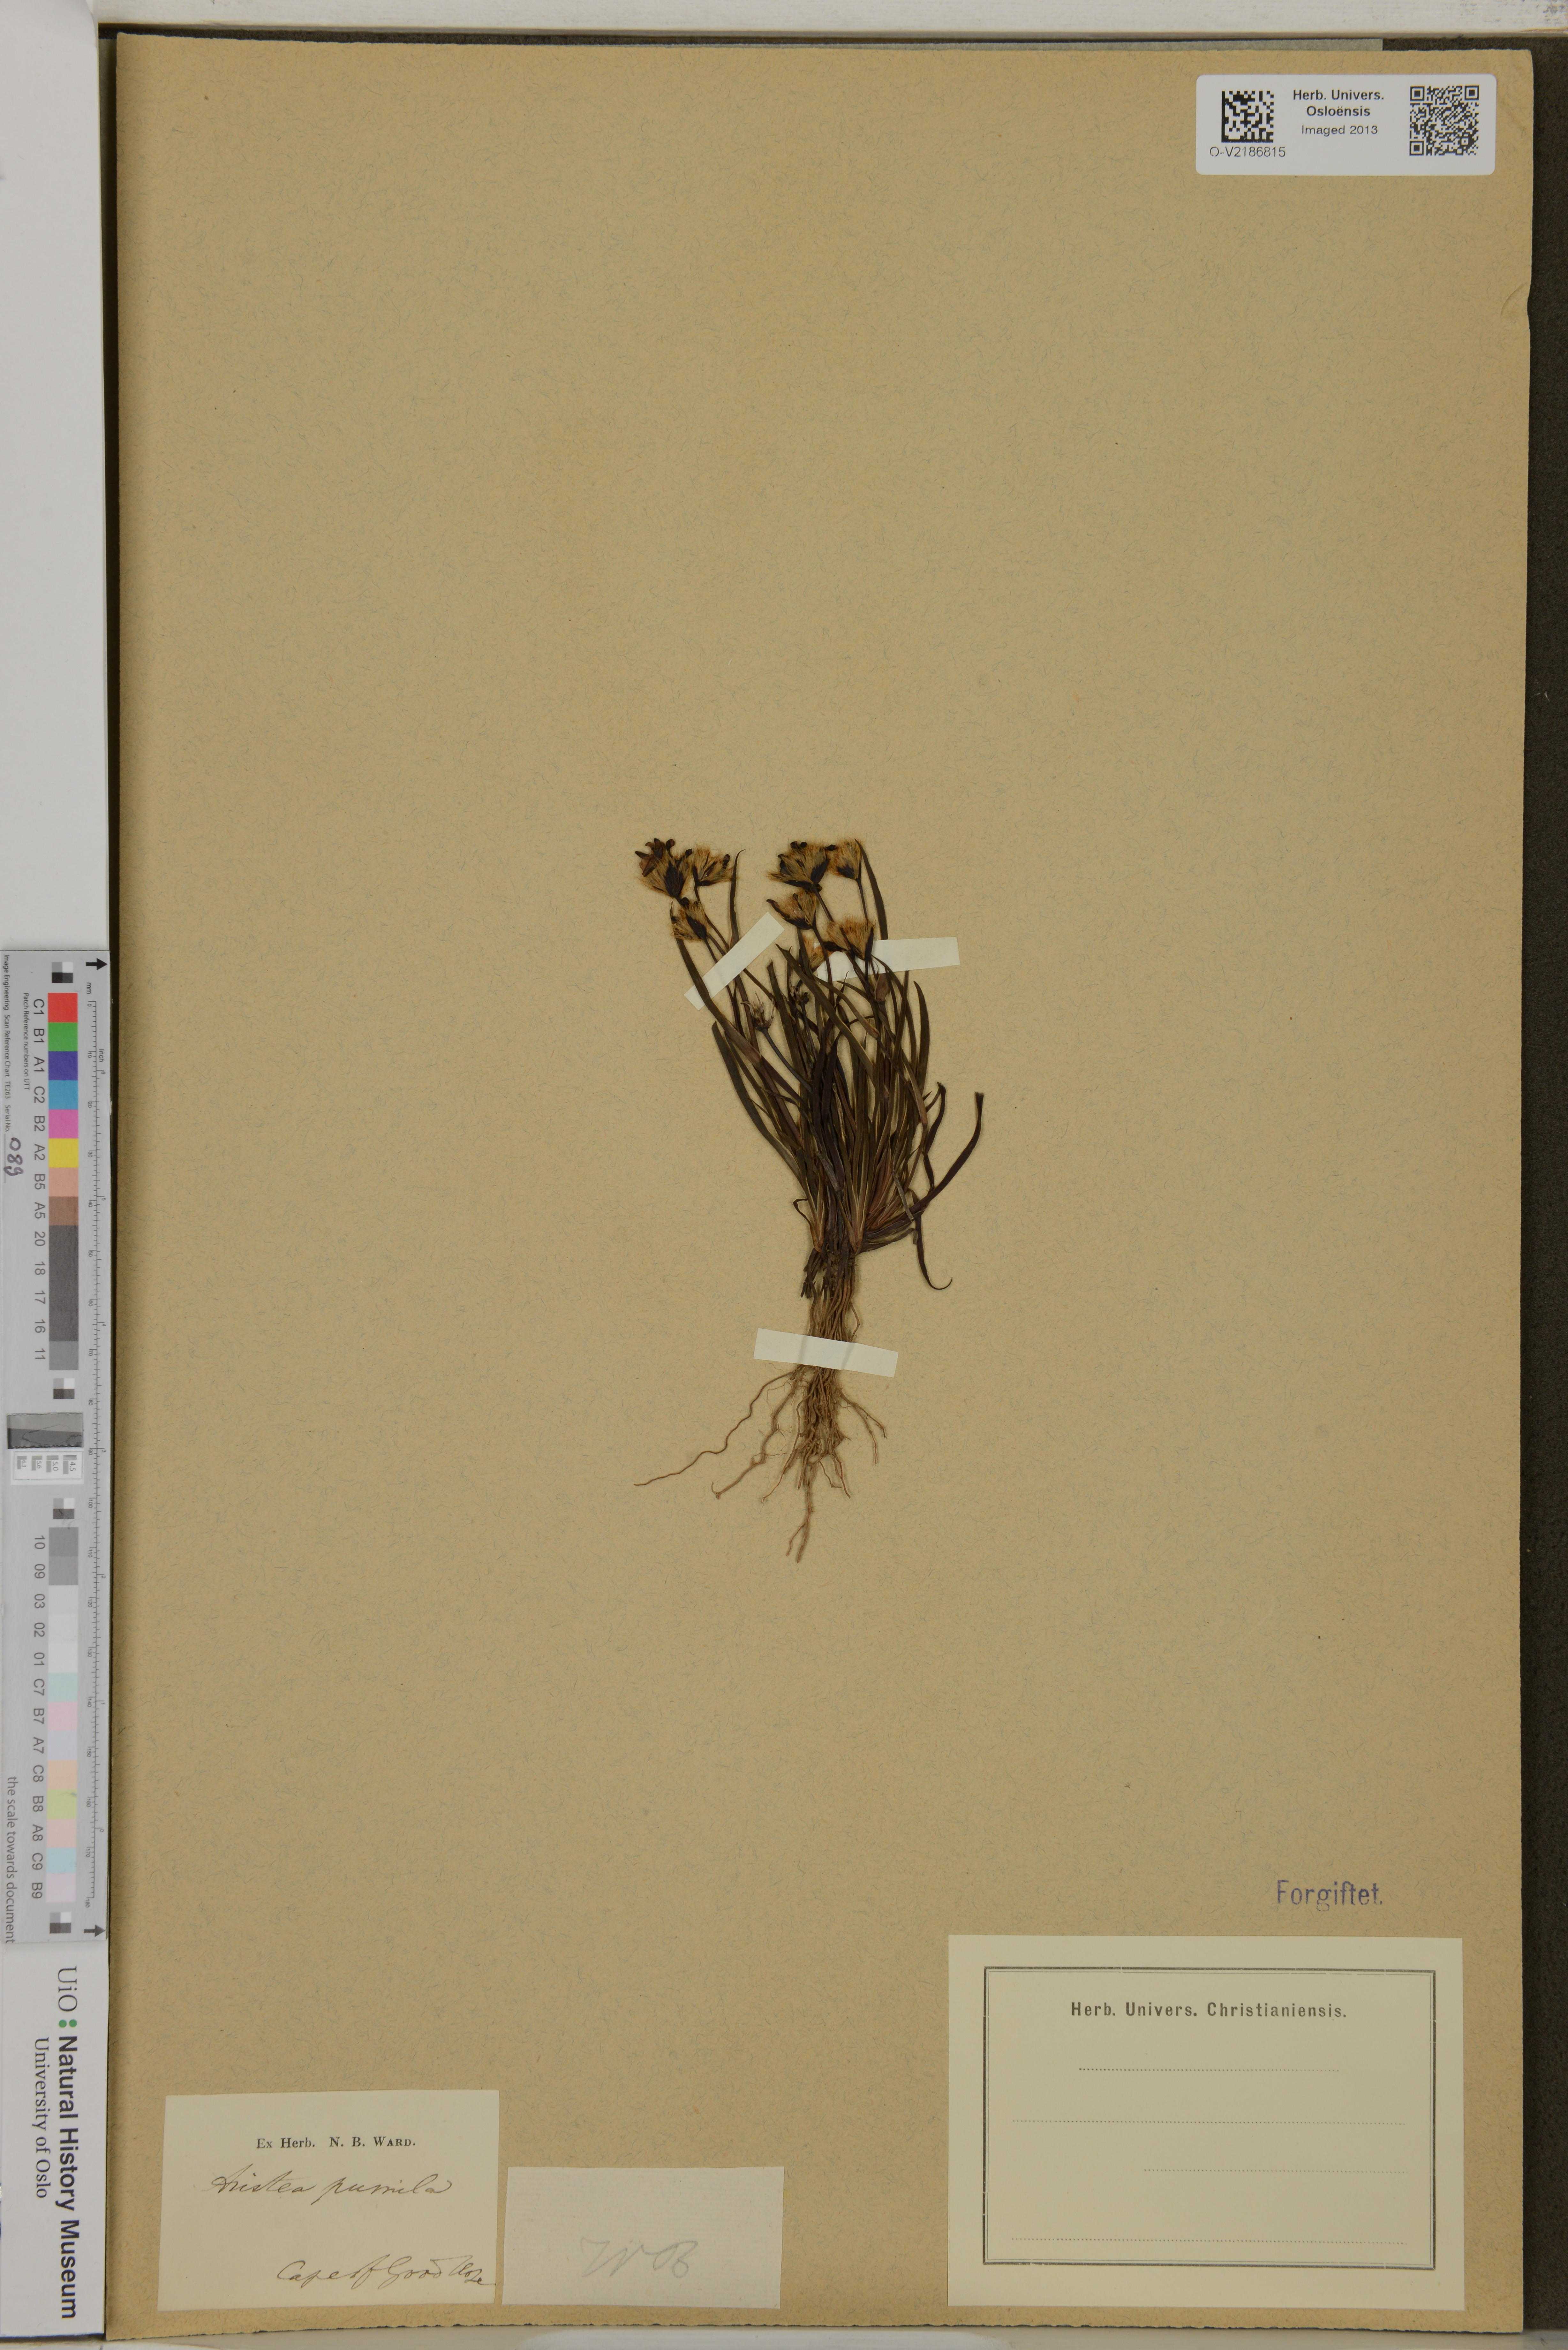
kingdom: Plantae
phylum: Tracheophyta
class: Liliopsida
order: Asparagales
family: Iridaceae
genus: Aristea
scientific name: Aristea pusilla
